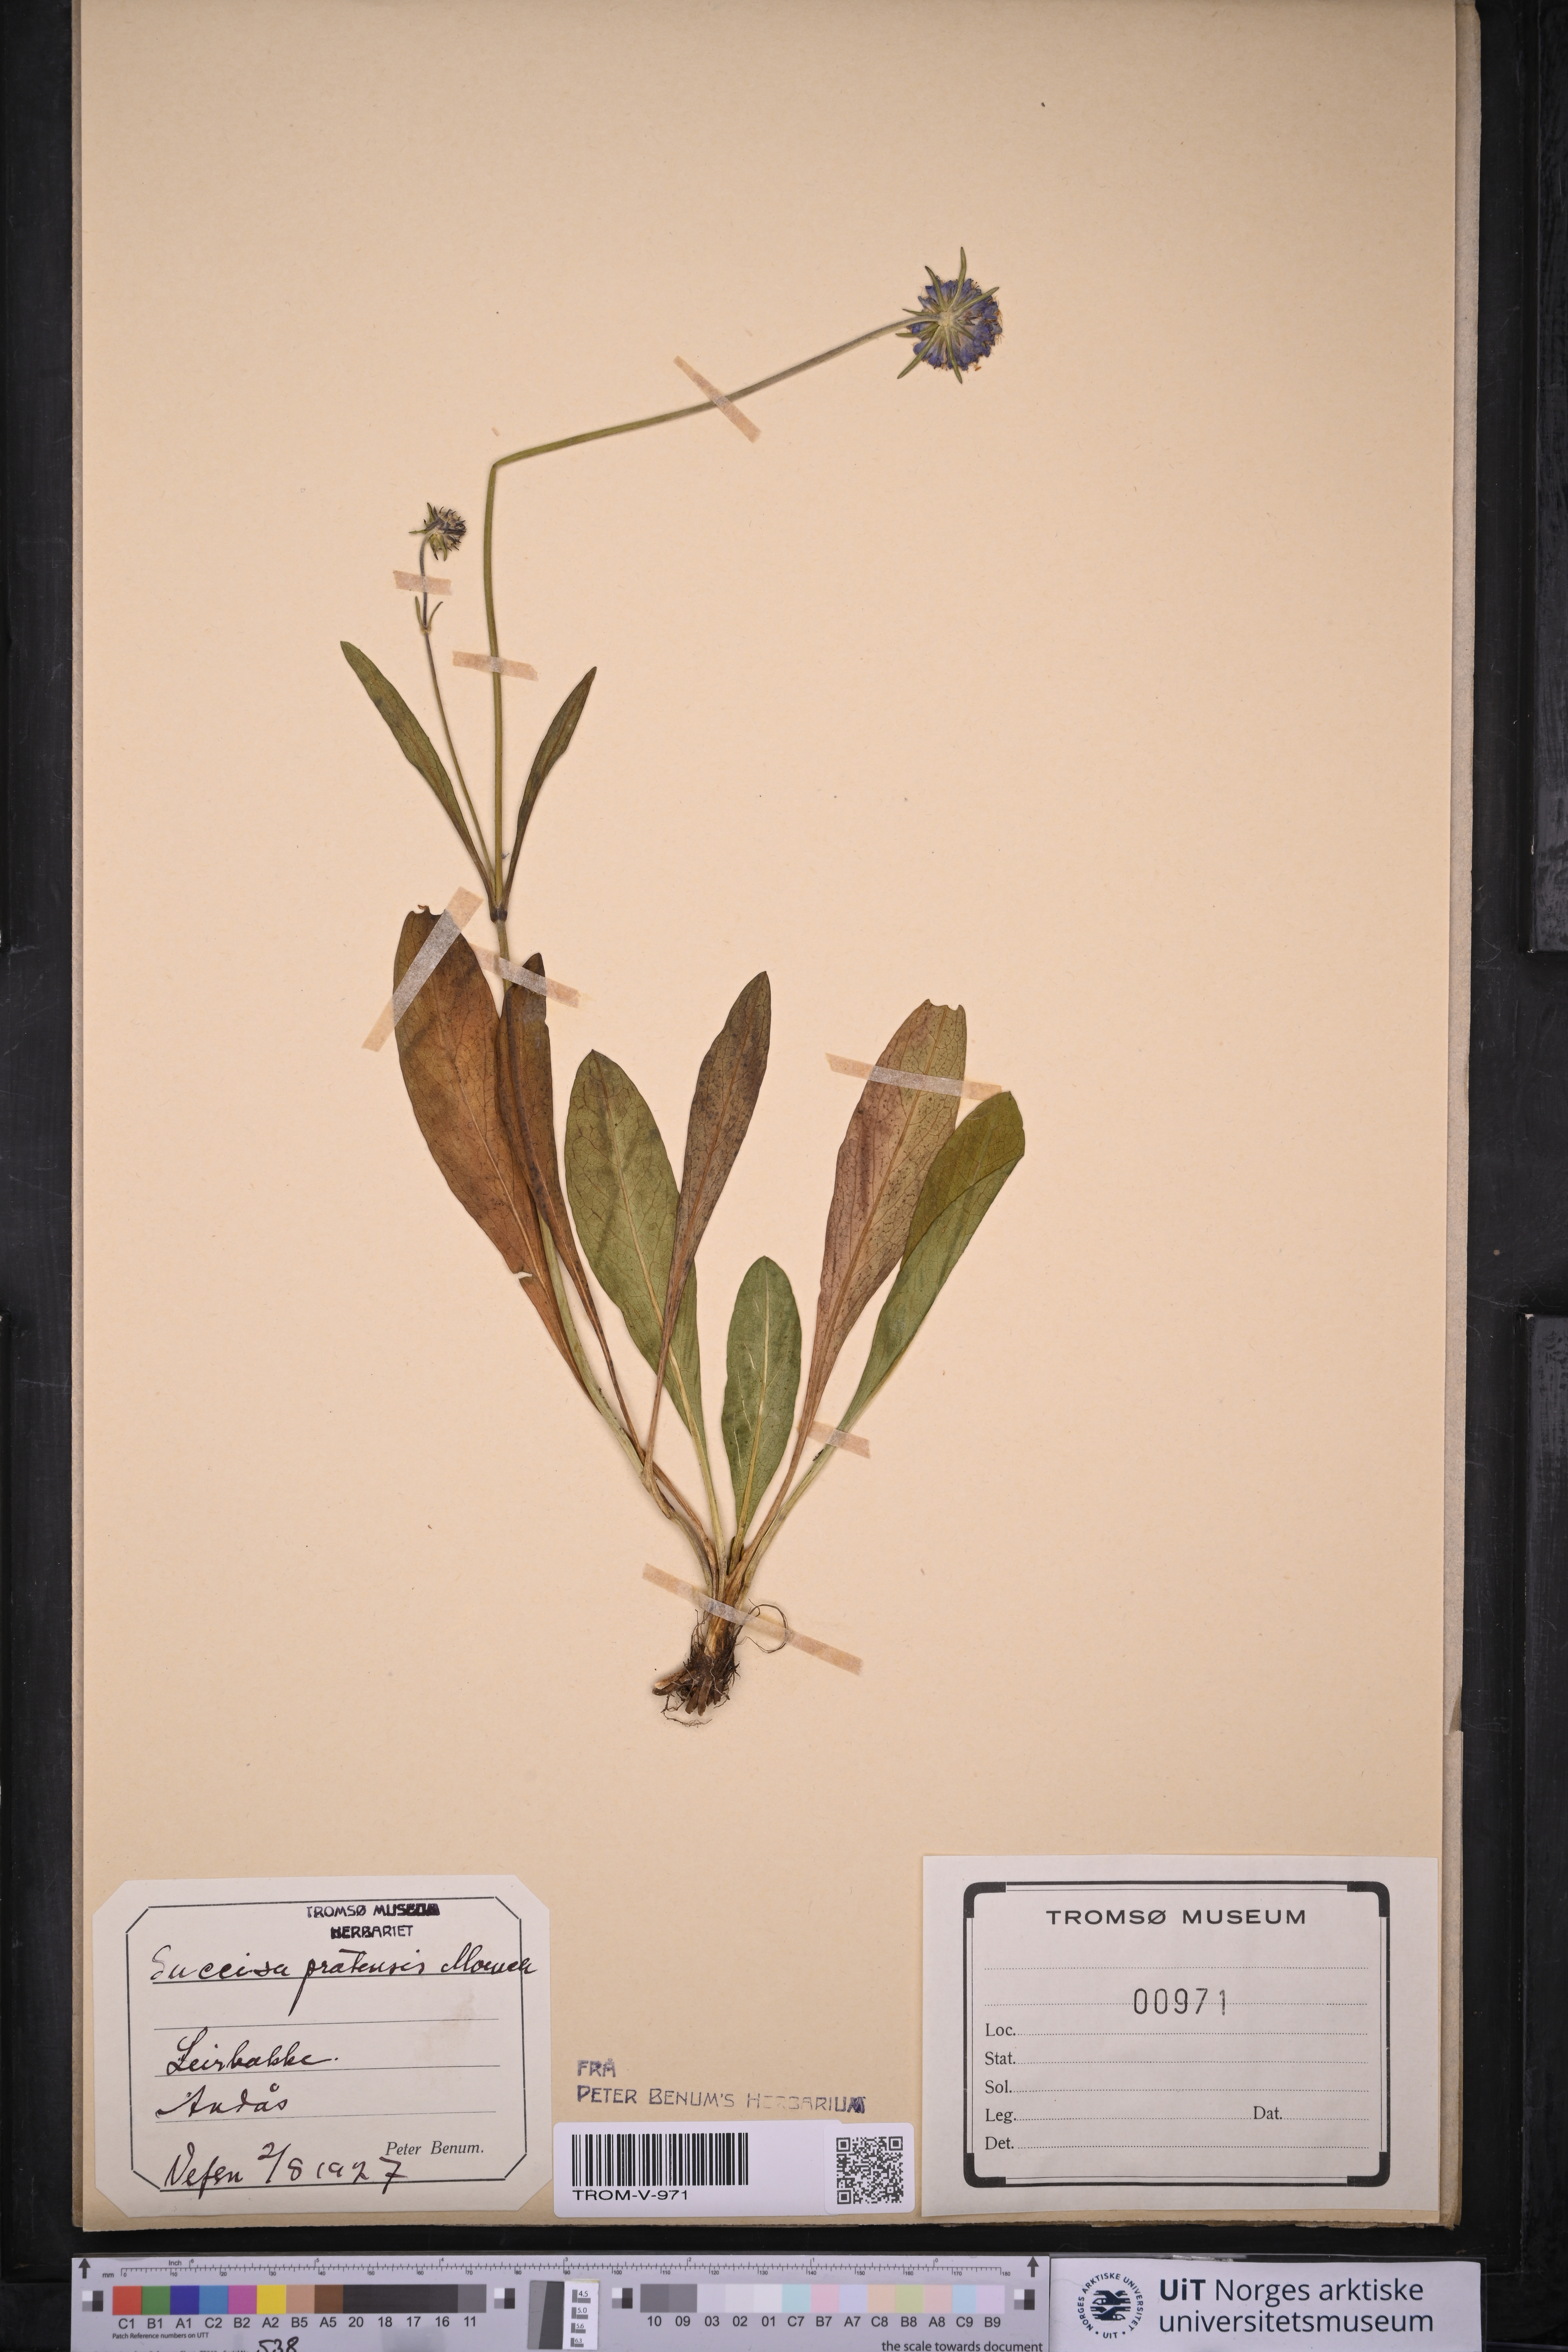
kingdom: Plantae
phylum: Tracheophyta
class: Magnoliopsida
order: Dipsacales
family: Caprifoliaceae
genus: Succisa
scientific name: Succisa pratensis
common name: Devil's-bit
